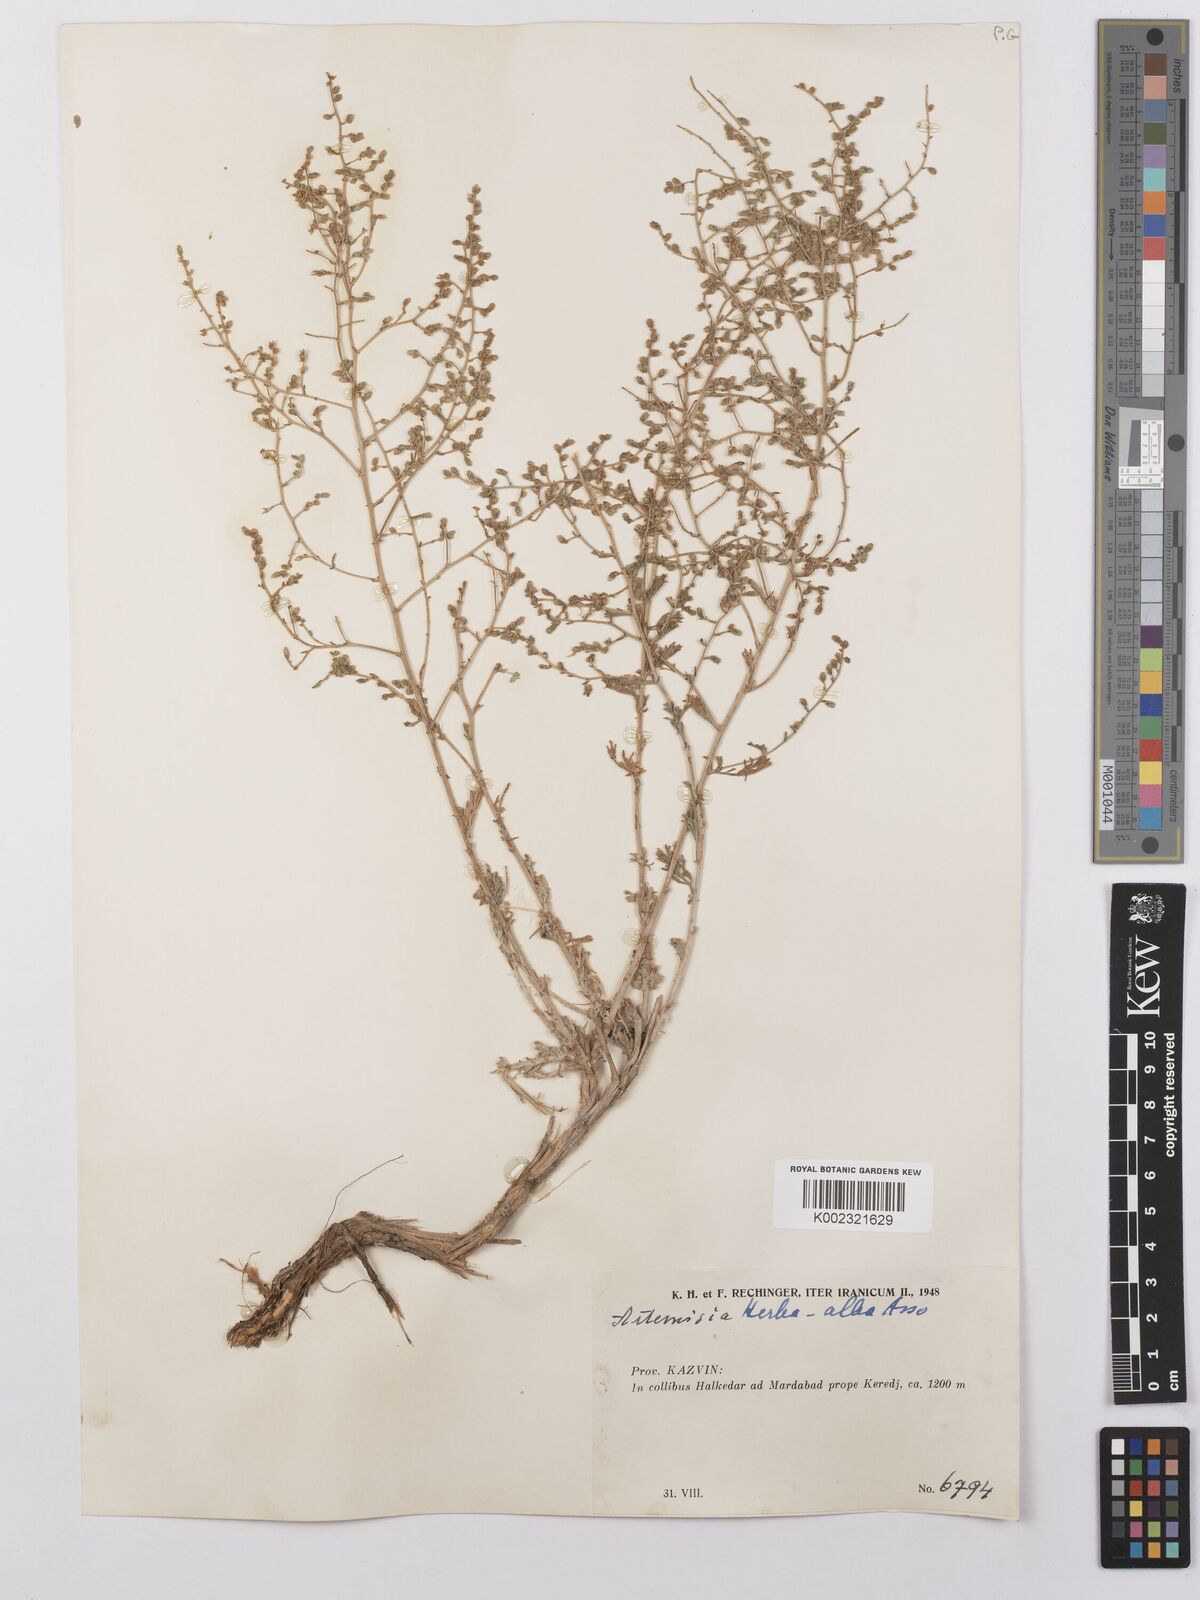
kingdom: Plantae
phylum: Tracheophyta
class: Magnoliopsida
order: Asterales
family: Asteraceae
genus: Artemisia
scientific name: Artemisia herba-alba
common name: White wormwood
